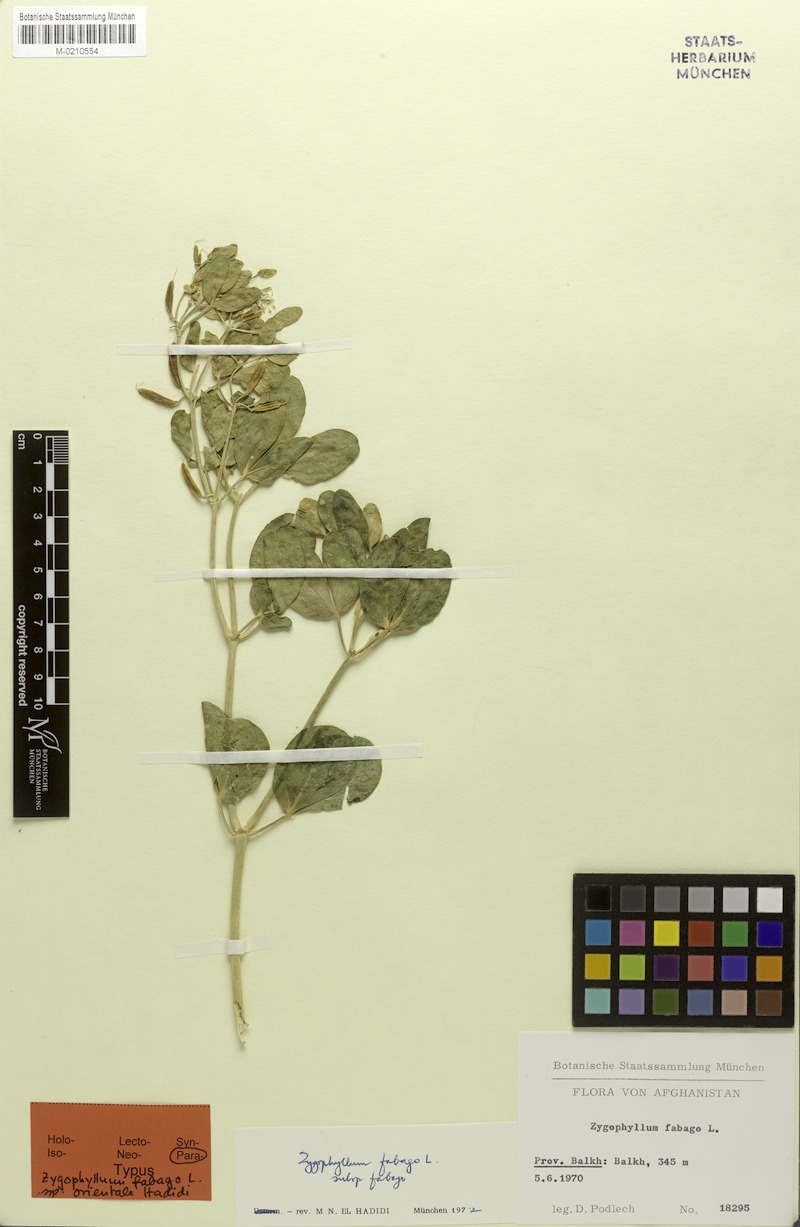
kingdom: Plantae
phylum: Tracheophyta
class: Magnoliopsida
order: Zygophyllales
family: Zygophyllaceae
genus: Zygophyllum
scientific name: Zygophyllum fabago
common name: Syrian beancaper
